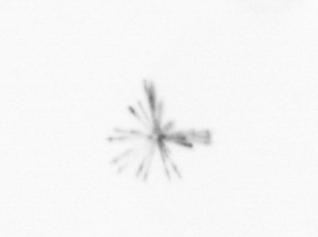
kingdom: Chromista
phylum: Ochrophyta
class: Bacillariophyceae
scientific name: Bacillariophyceae
